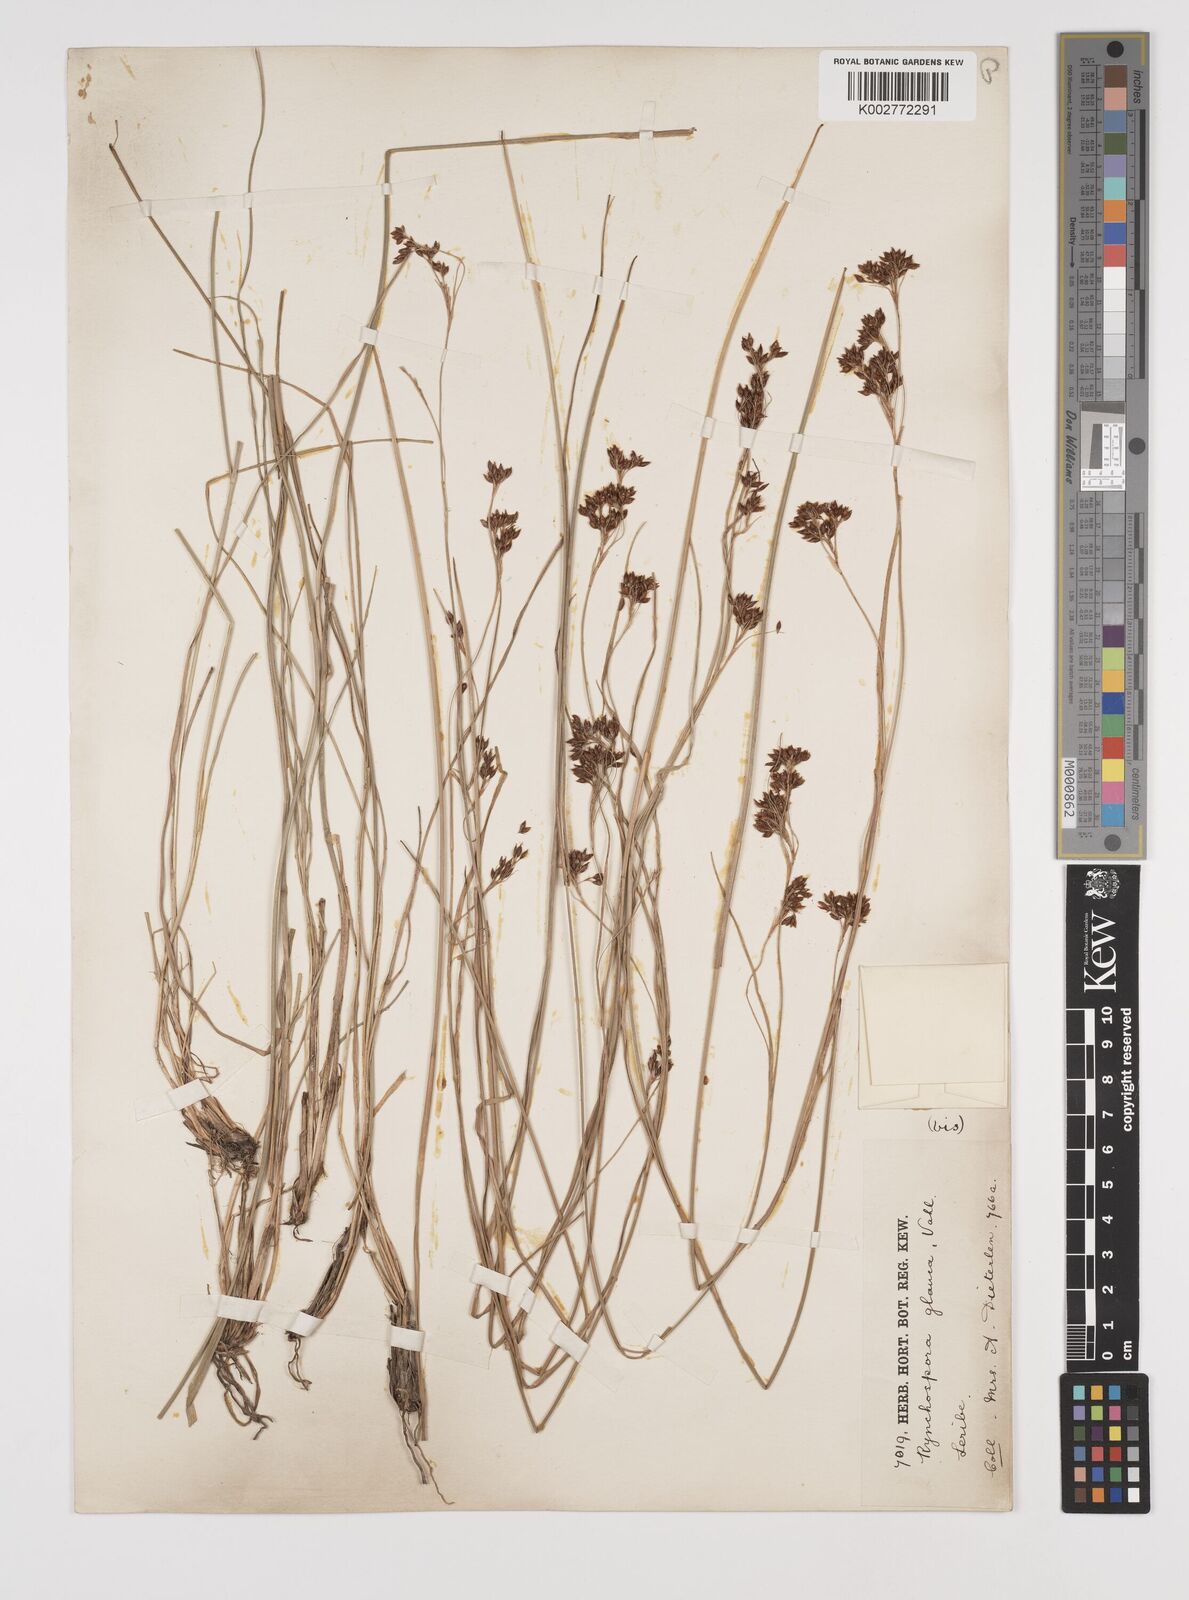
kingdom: Plantae
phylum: Tracheophyta
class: Liliopsida
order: Poales
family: Cyperaceae
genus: Rhynchospora
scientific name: Rhynchospora rugosa
